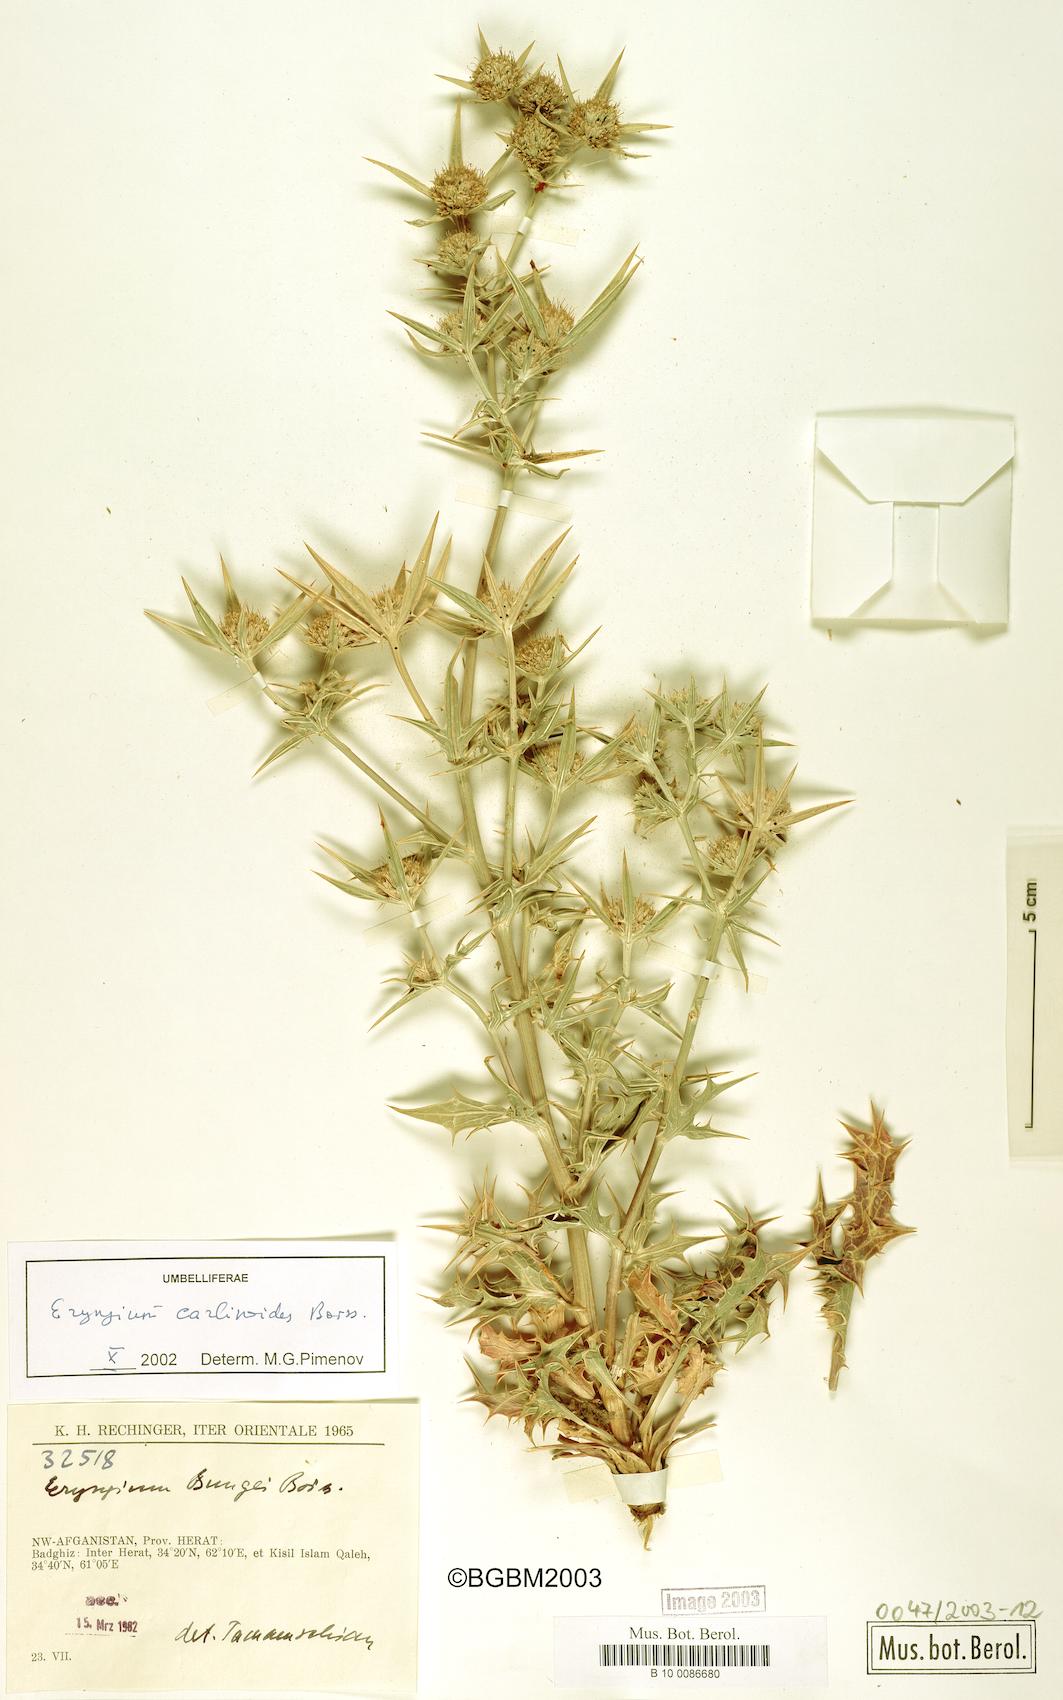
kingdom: Plantae
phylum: Tracheophyta
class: Magnoliopsida
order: Apiales
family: Apiaceae
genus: Eryngium
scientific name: Eryngium carlinoides
